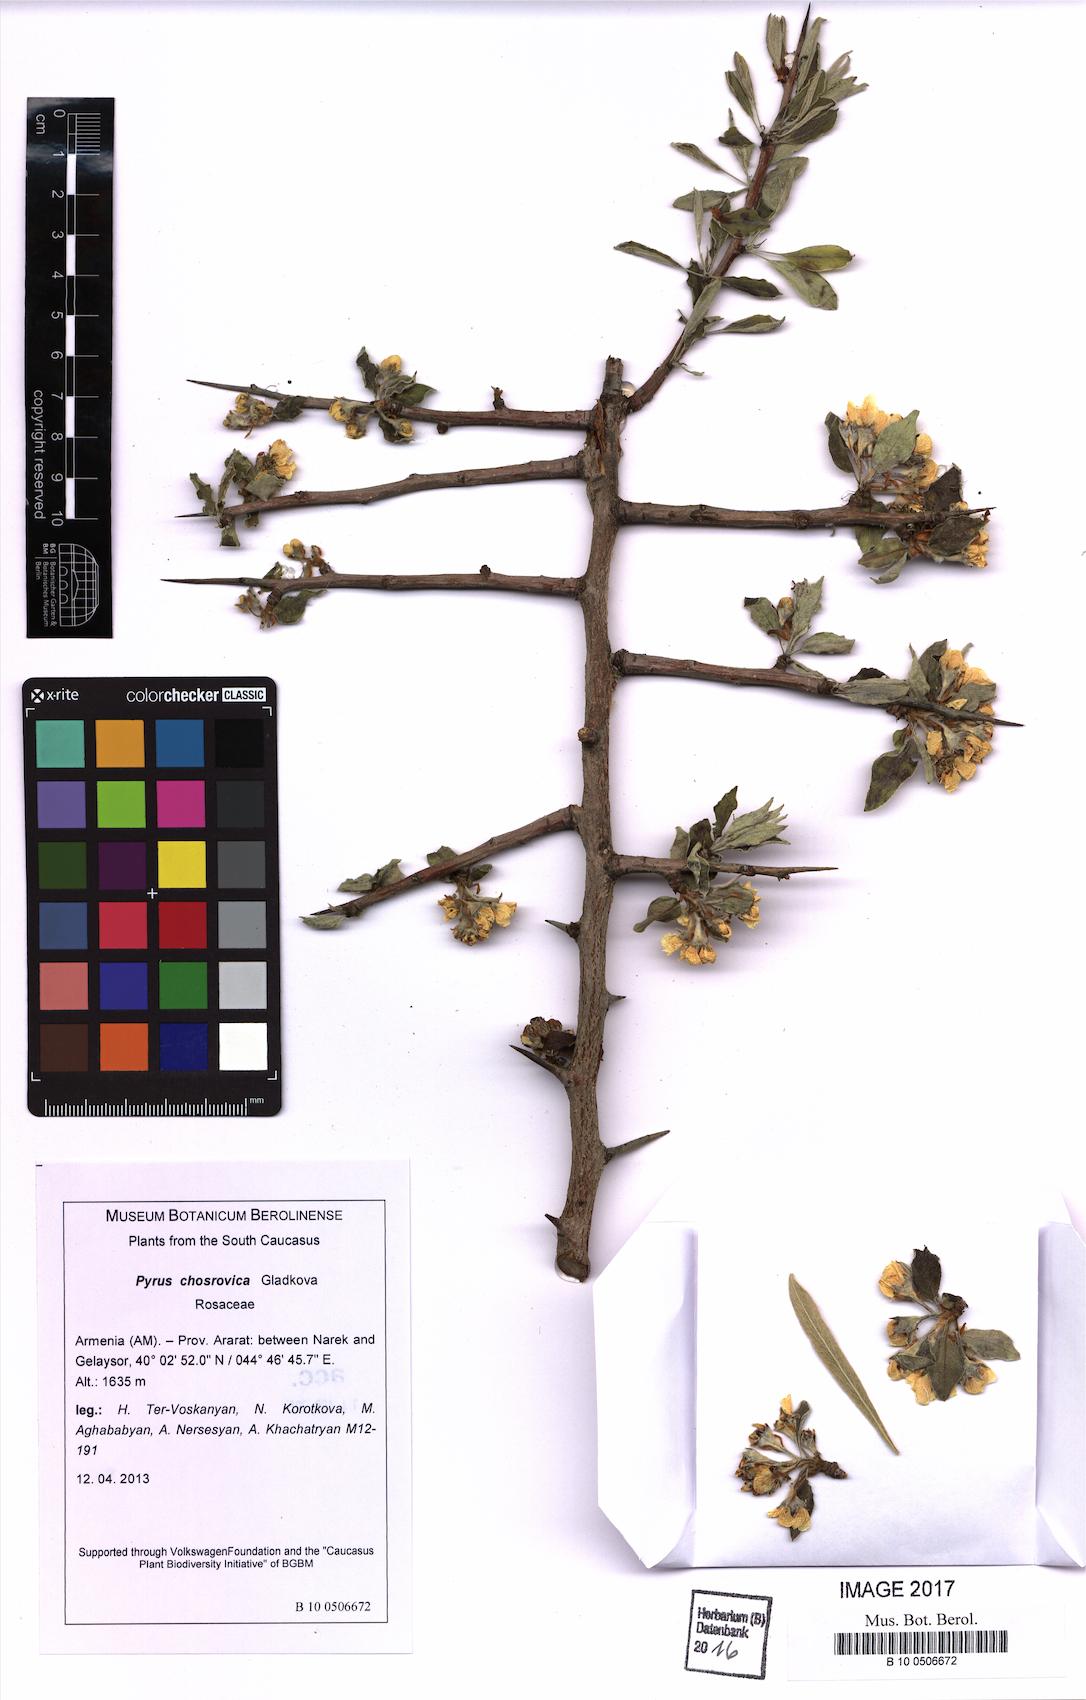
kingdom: Plantae
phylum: Tracheophyta
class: Magnoliopsida
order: Rosales
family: Rosaceae
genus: Pyrus
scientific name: Pyrus chosrovica
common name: Khosrovian pear
